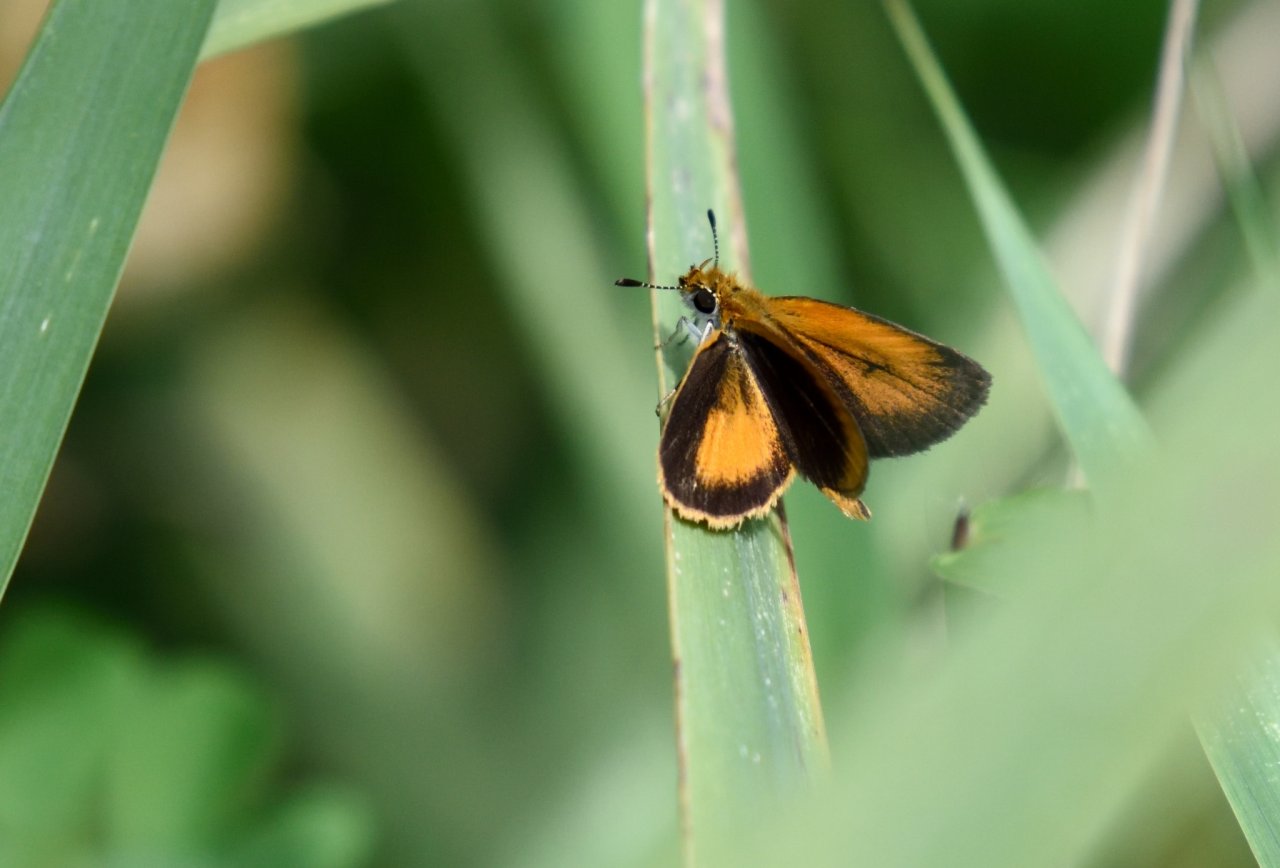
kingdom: Animalia
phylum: Arthropoda
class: Insecta
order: Lepidoptera
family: Hesperiidae
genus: Ancyloxypha
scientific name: Ancyloxypha numitor
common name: Least Skipper
